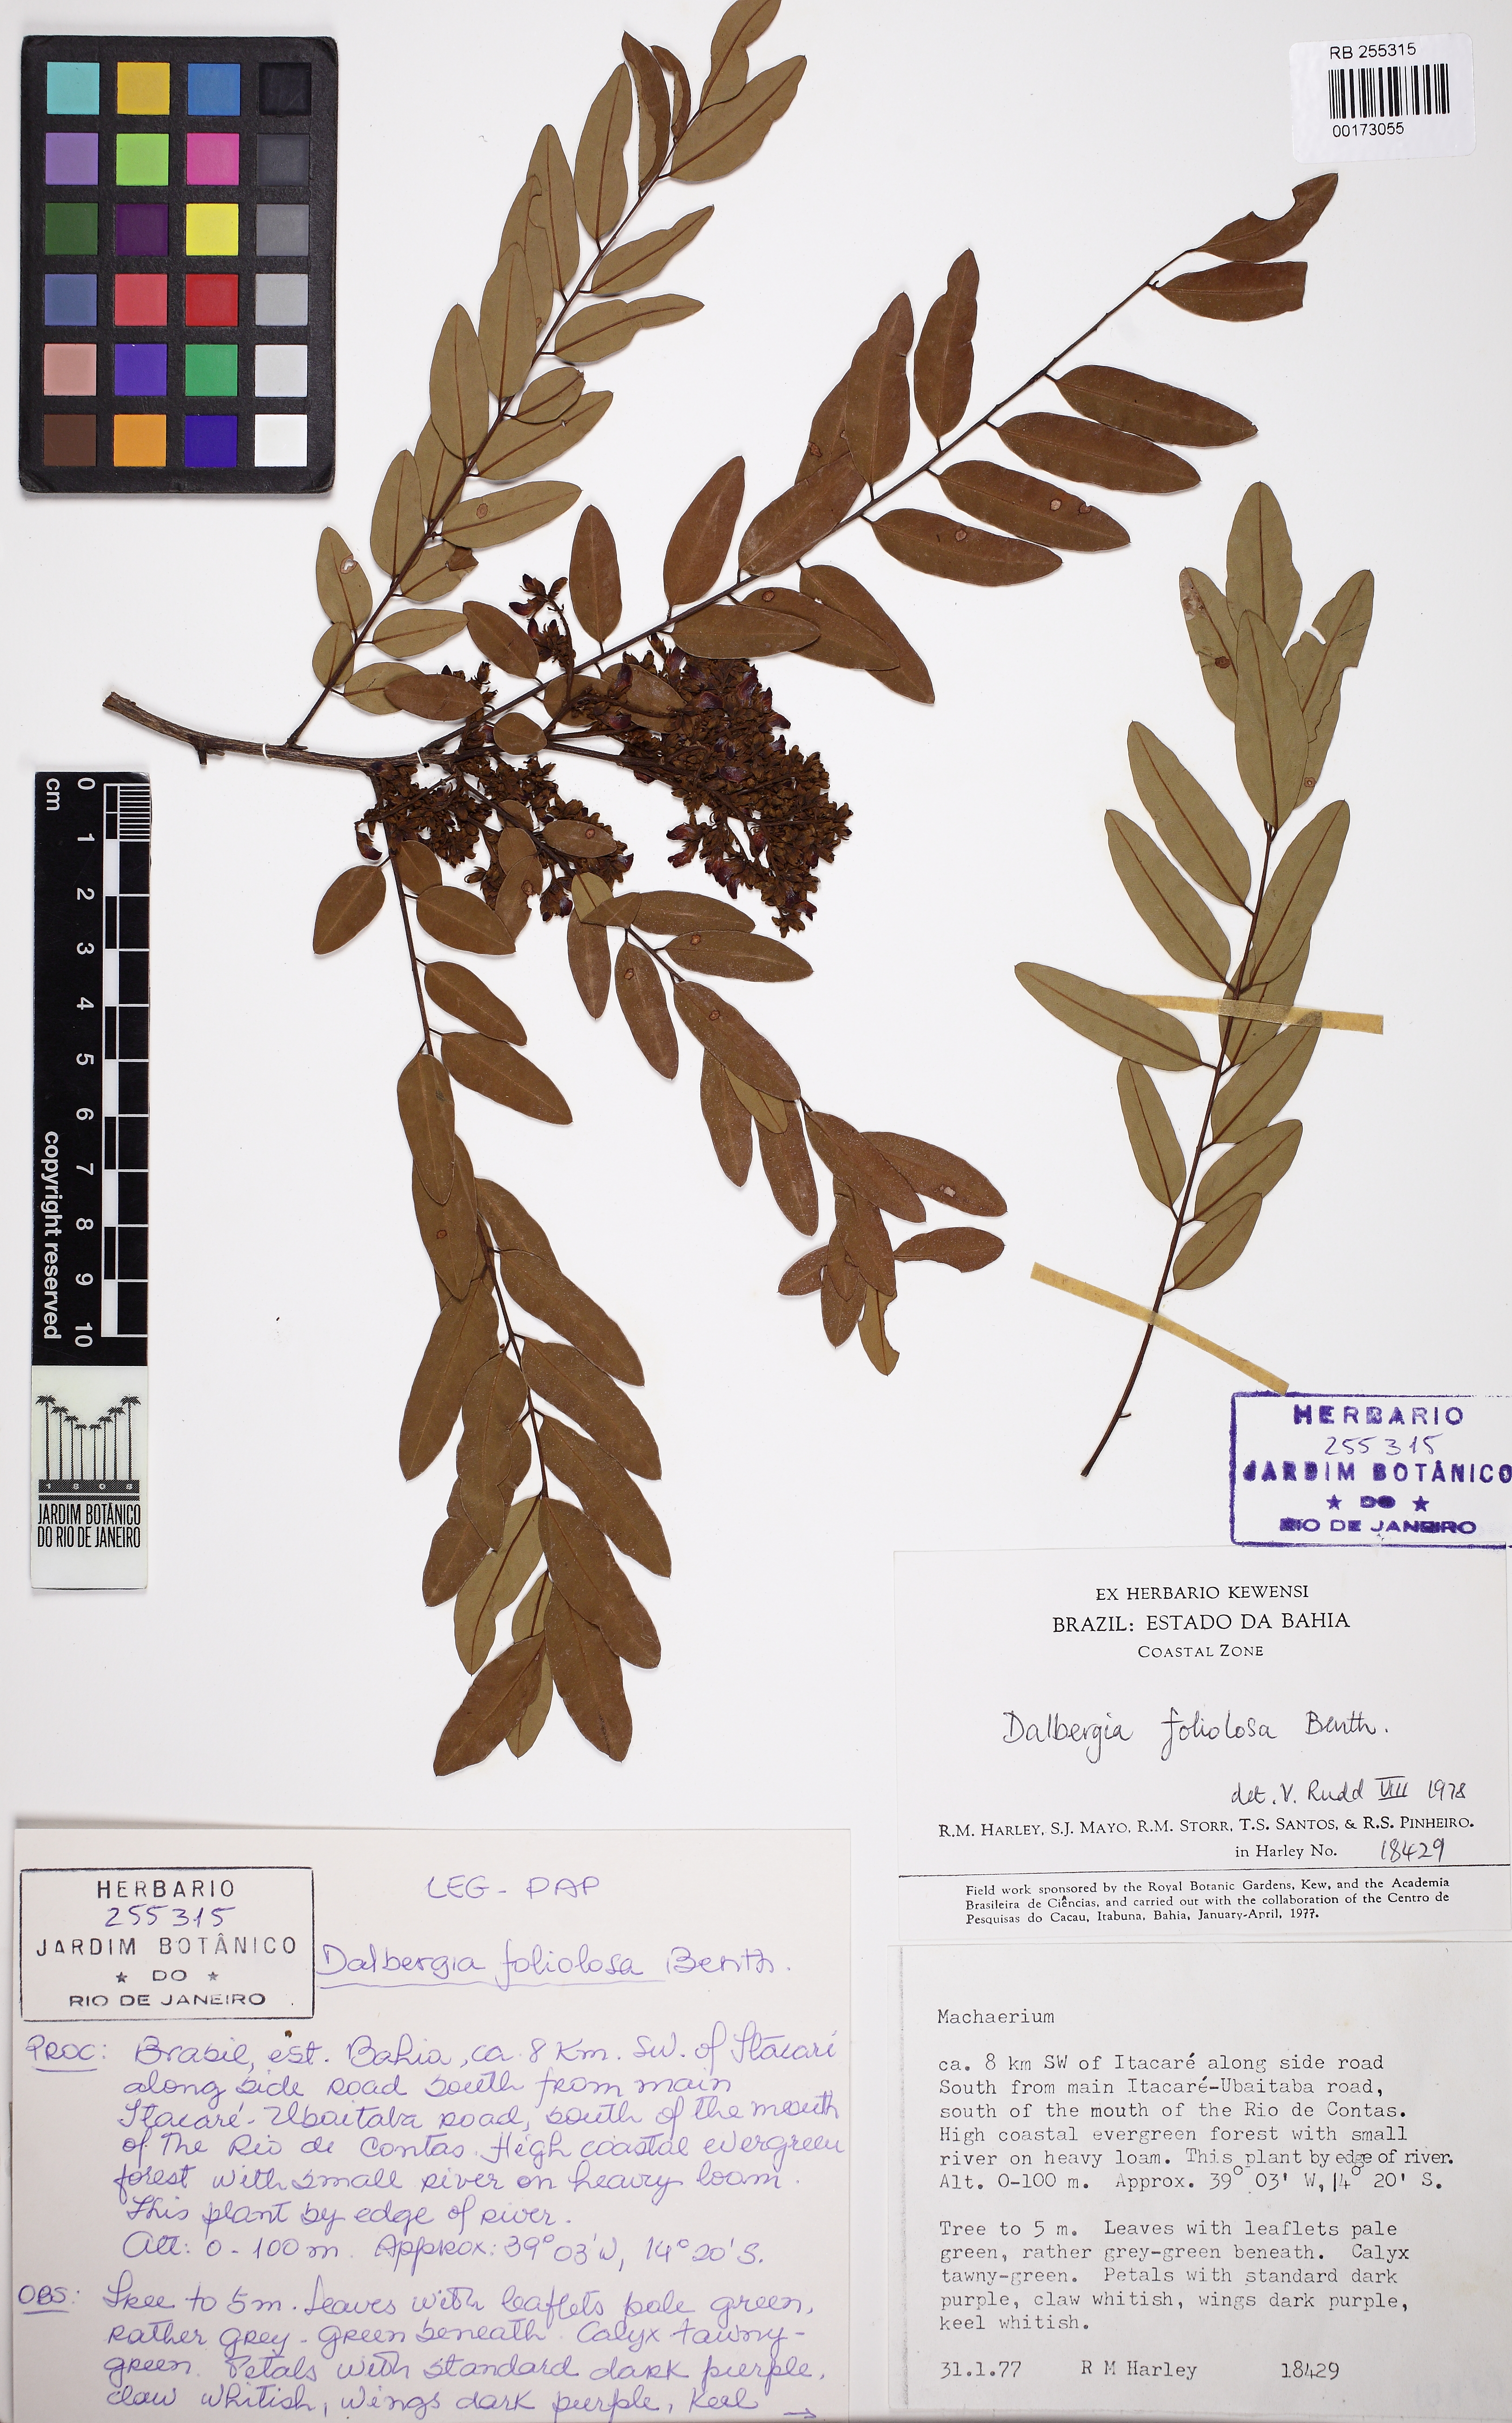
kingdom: Plantae
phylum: Tracheophyta
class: Magnoliopsida
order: Fabales
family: Fabaceae
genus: Dalbergia
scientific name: Dalbergia foliolosa
